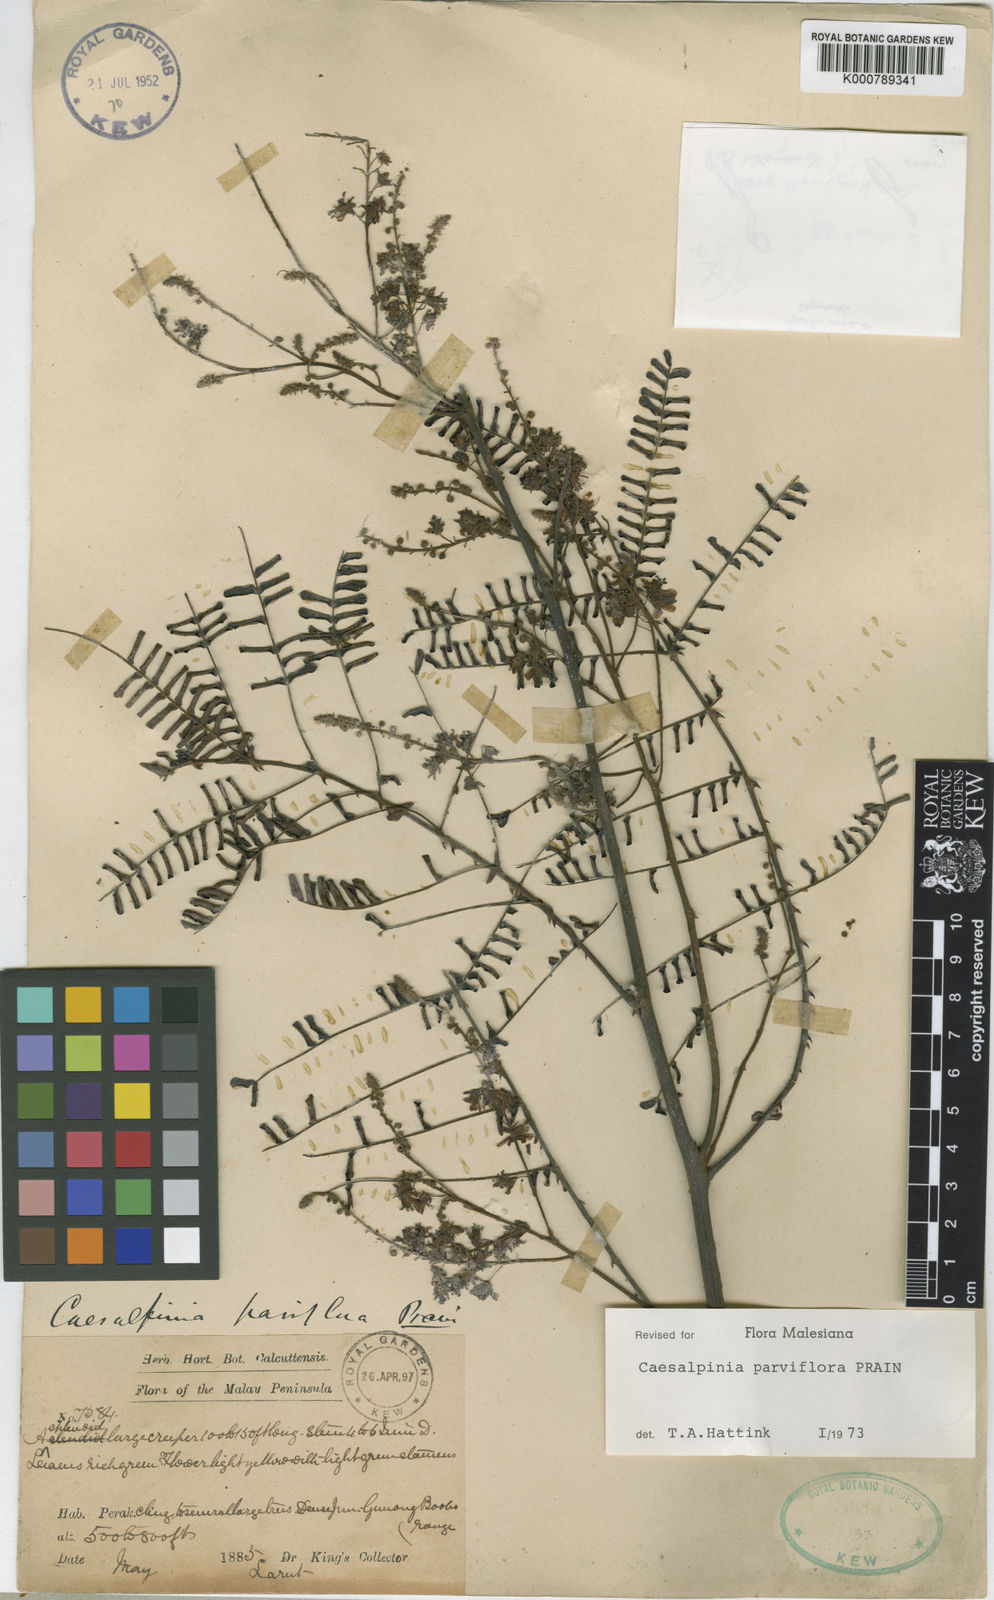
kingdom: Plantae
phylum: Tracheophyta
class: Magnoliopsida
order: Fabales
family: Fabaceae
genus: Caesalpinia
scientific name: Caesalpinia
